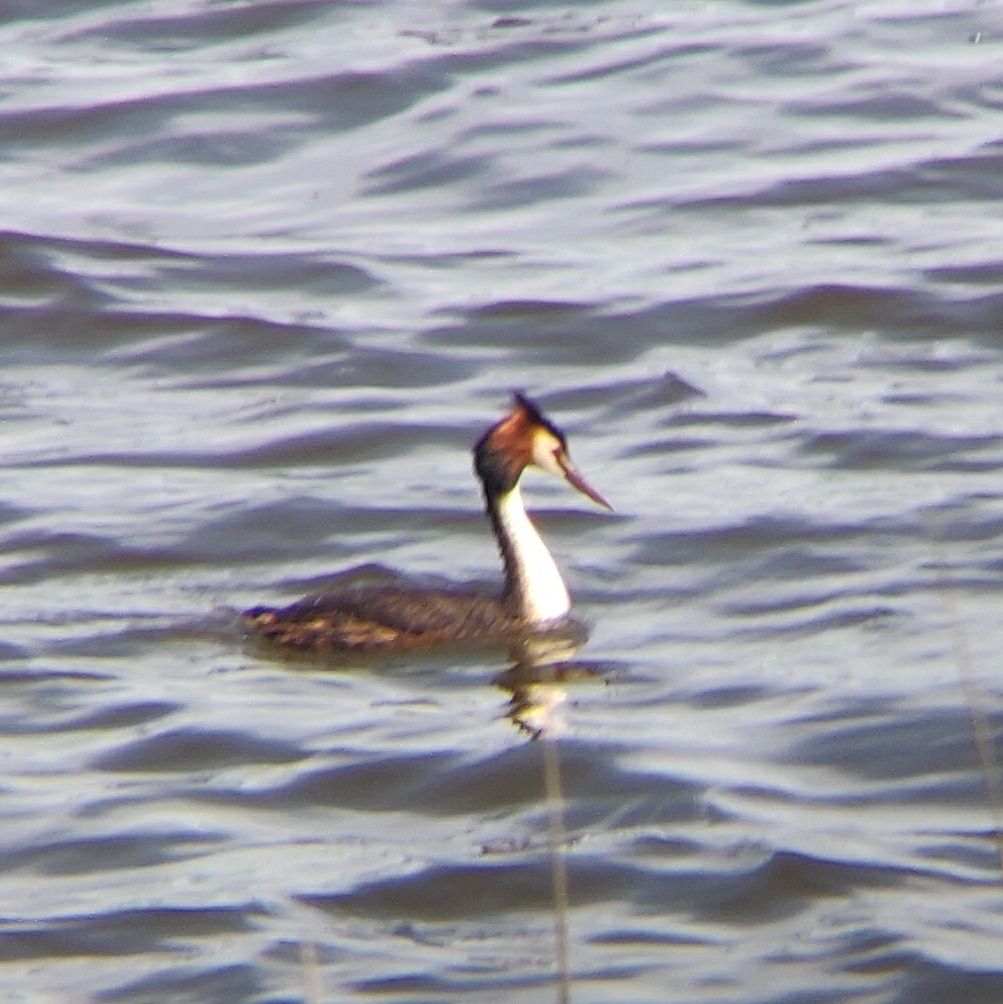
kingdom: Animalia
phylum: Chordata
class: Aves
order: Podicipediformes
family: Podicipedidae
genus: Podiceps
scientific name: Podiceps cristatus
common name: Toppet lappedykker
